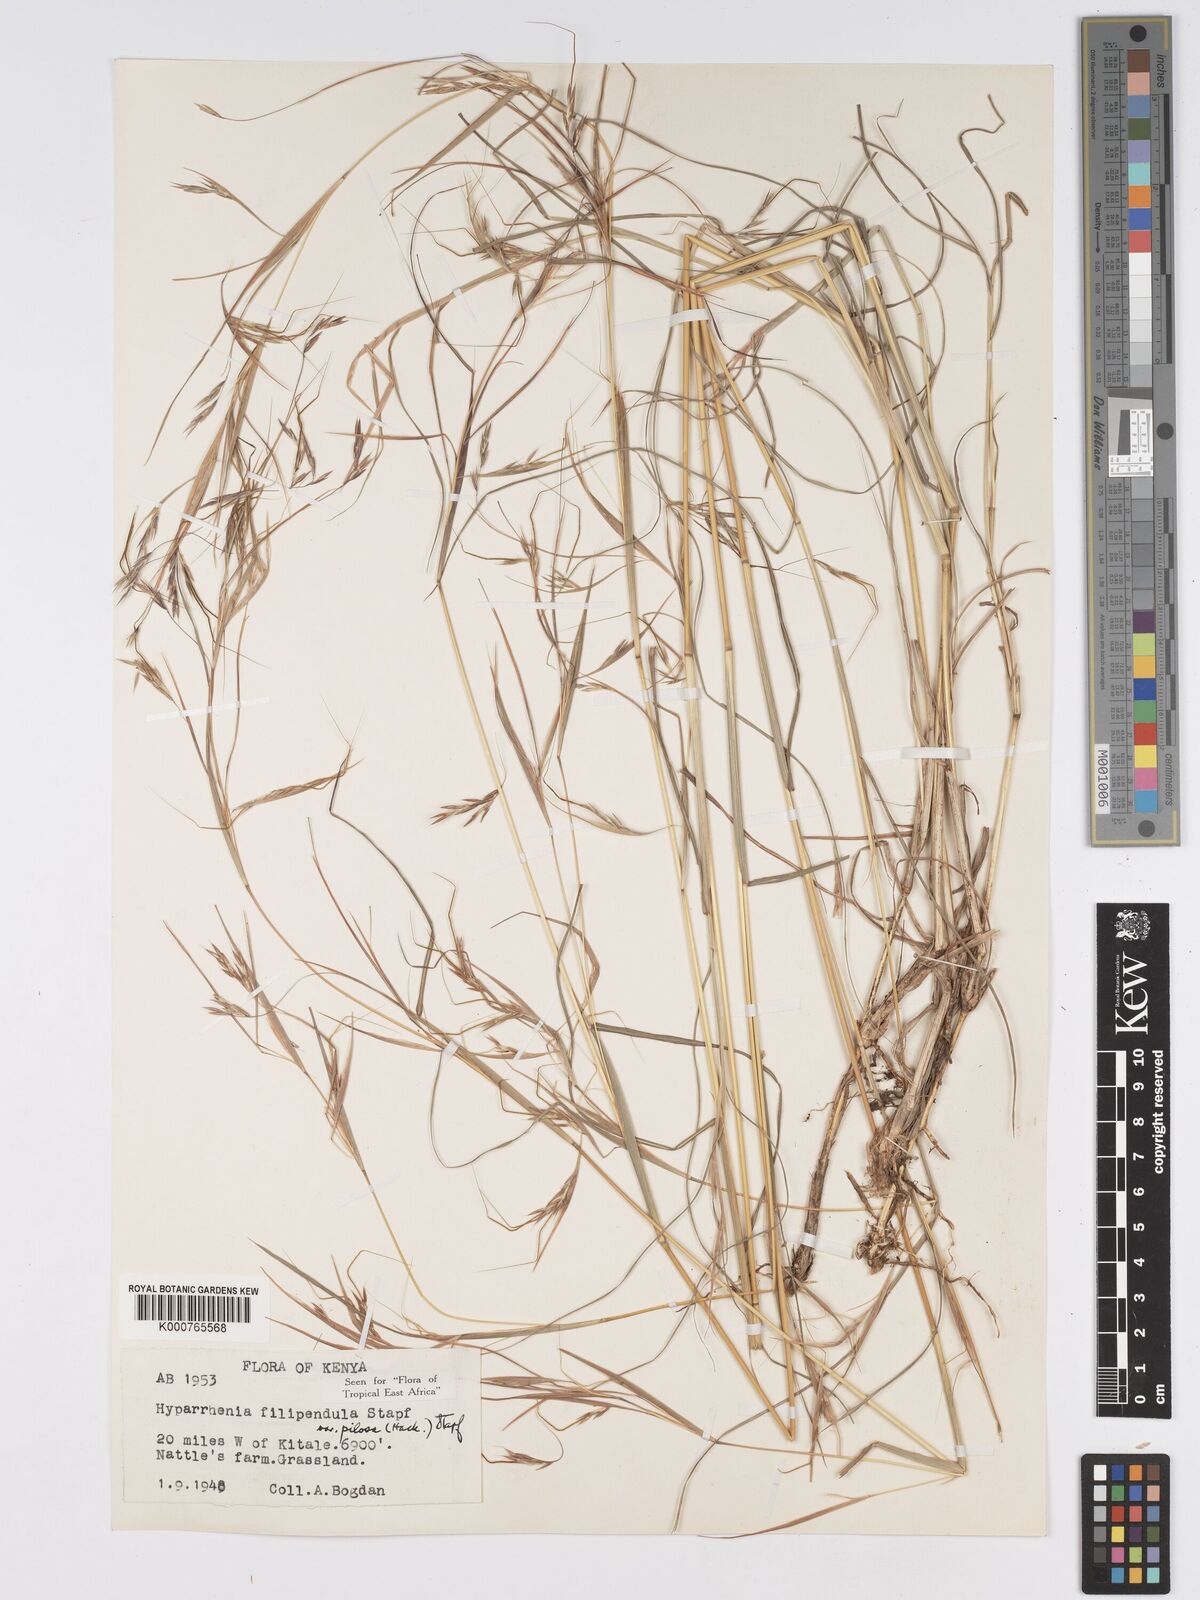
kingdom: Plantae
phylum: Tracheophyta
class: Liliopsida
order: Poales
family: Poaceae
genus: Hyparrhenia
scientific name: Hyparrhenia filipendula
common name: Tambookie grass
